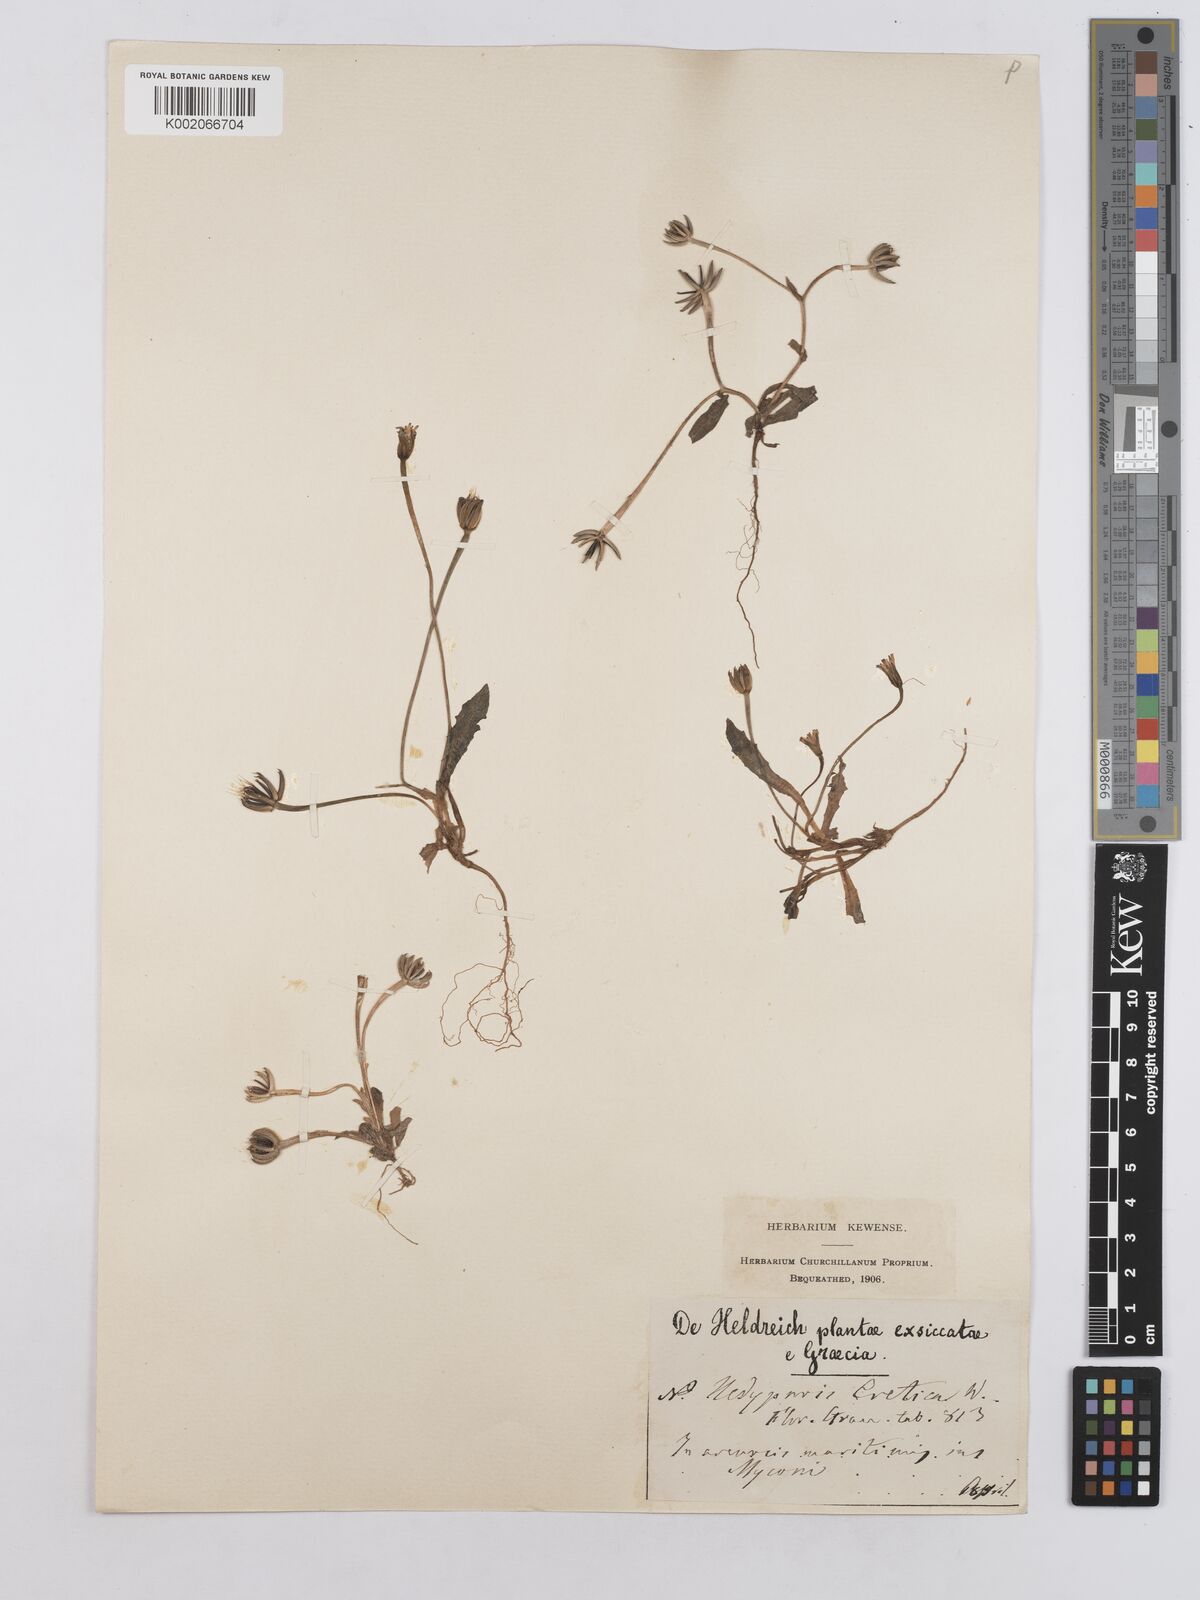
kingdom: Plantae
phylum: Tracheophyta
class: Magnoliopsida
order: Asterales
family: Asteraceae
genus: Hedypnois
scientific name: Hedypnois rhagadioloides
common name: Cretan weed
